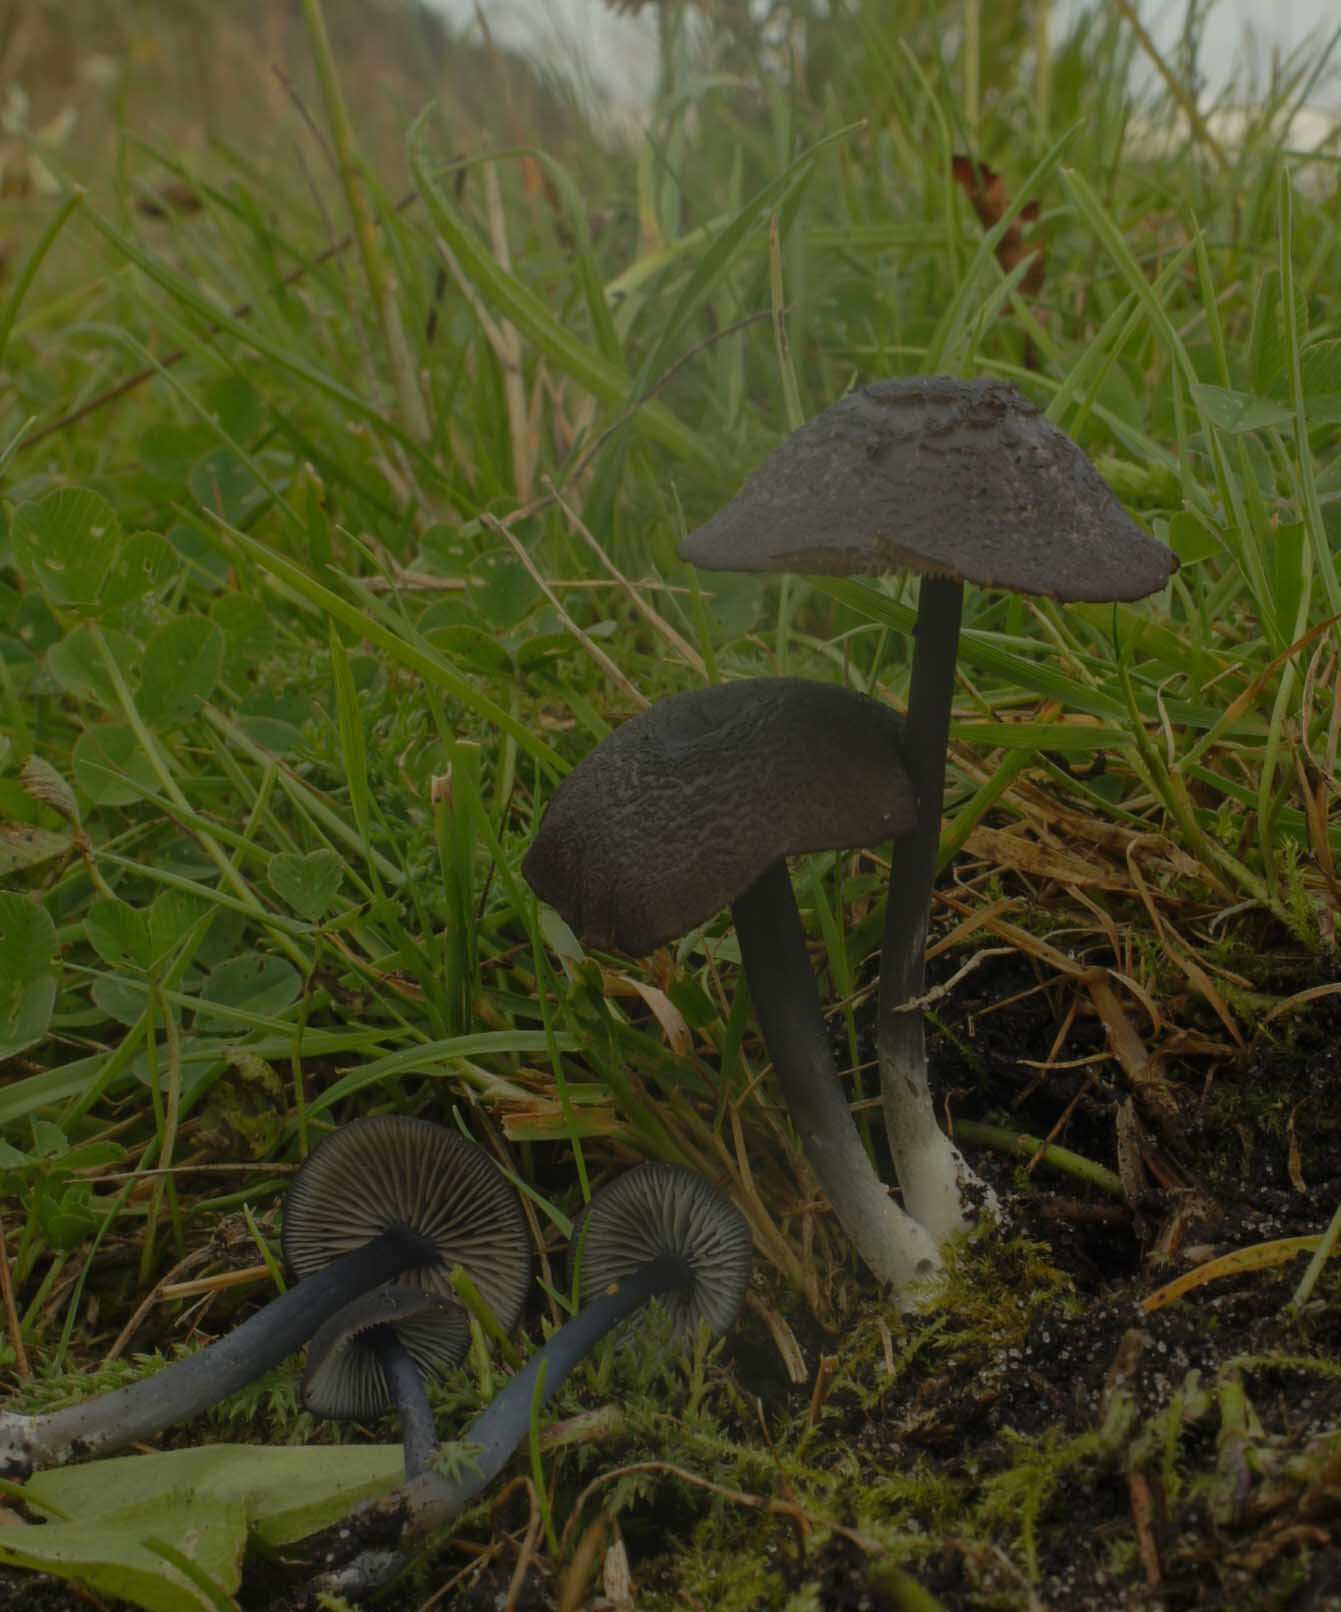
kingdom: Fungi
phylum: Basidiomycota
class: Agaricomycetes
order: Agaricales
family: Entolomataceae
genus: Entoloma
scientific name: Entoloma chalybeum
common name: blåbladet rødblad
